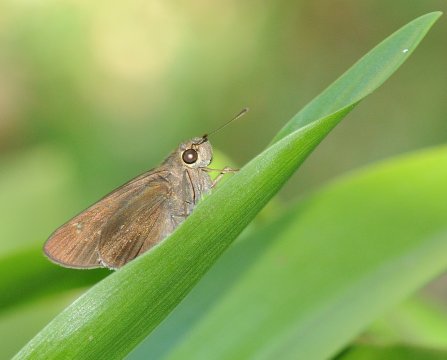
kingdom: Animalia
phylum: Arthropoda
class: Insecta
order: Lepidoptera
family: Hesperiidae
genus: Borbo
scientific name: Borbo
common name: Swifts
